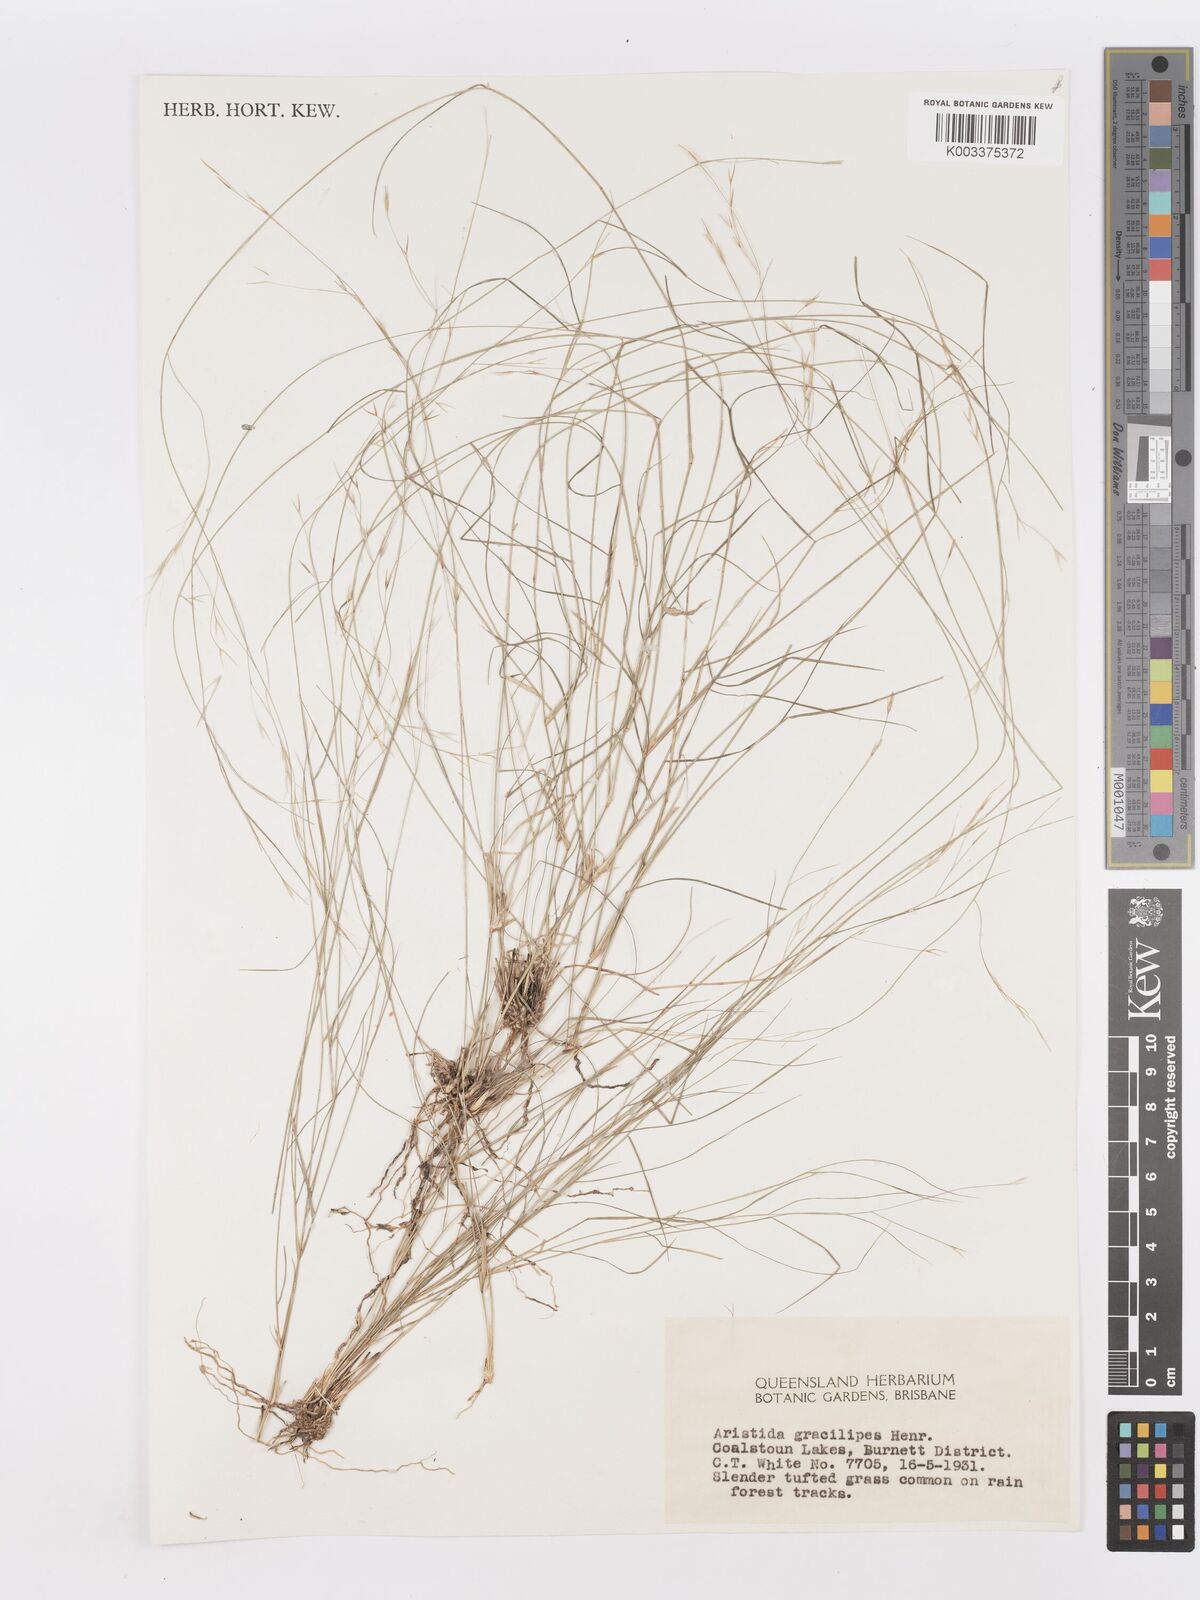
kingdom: Plantae
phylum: Tracheophyta
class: Liliopsida
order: Poales
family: Poaceae
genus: Aristida
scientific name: Aristida gracilipes
